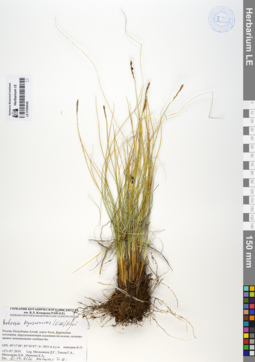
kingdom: Plantae
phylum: Tracheophyta
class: Liliopsida
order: Poales
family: Cyperaceae
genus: Carex
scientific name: Carex myosuroides
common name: Bellard's bog sedge
